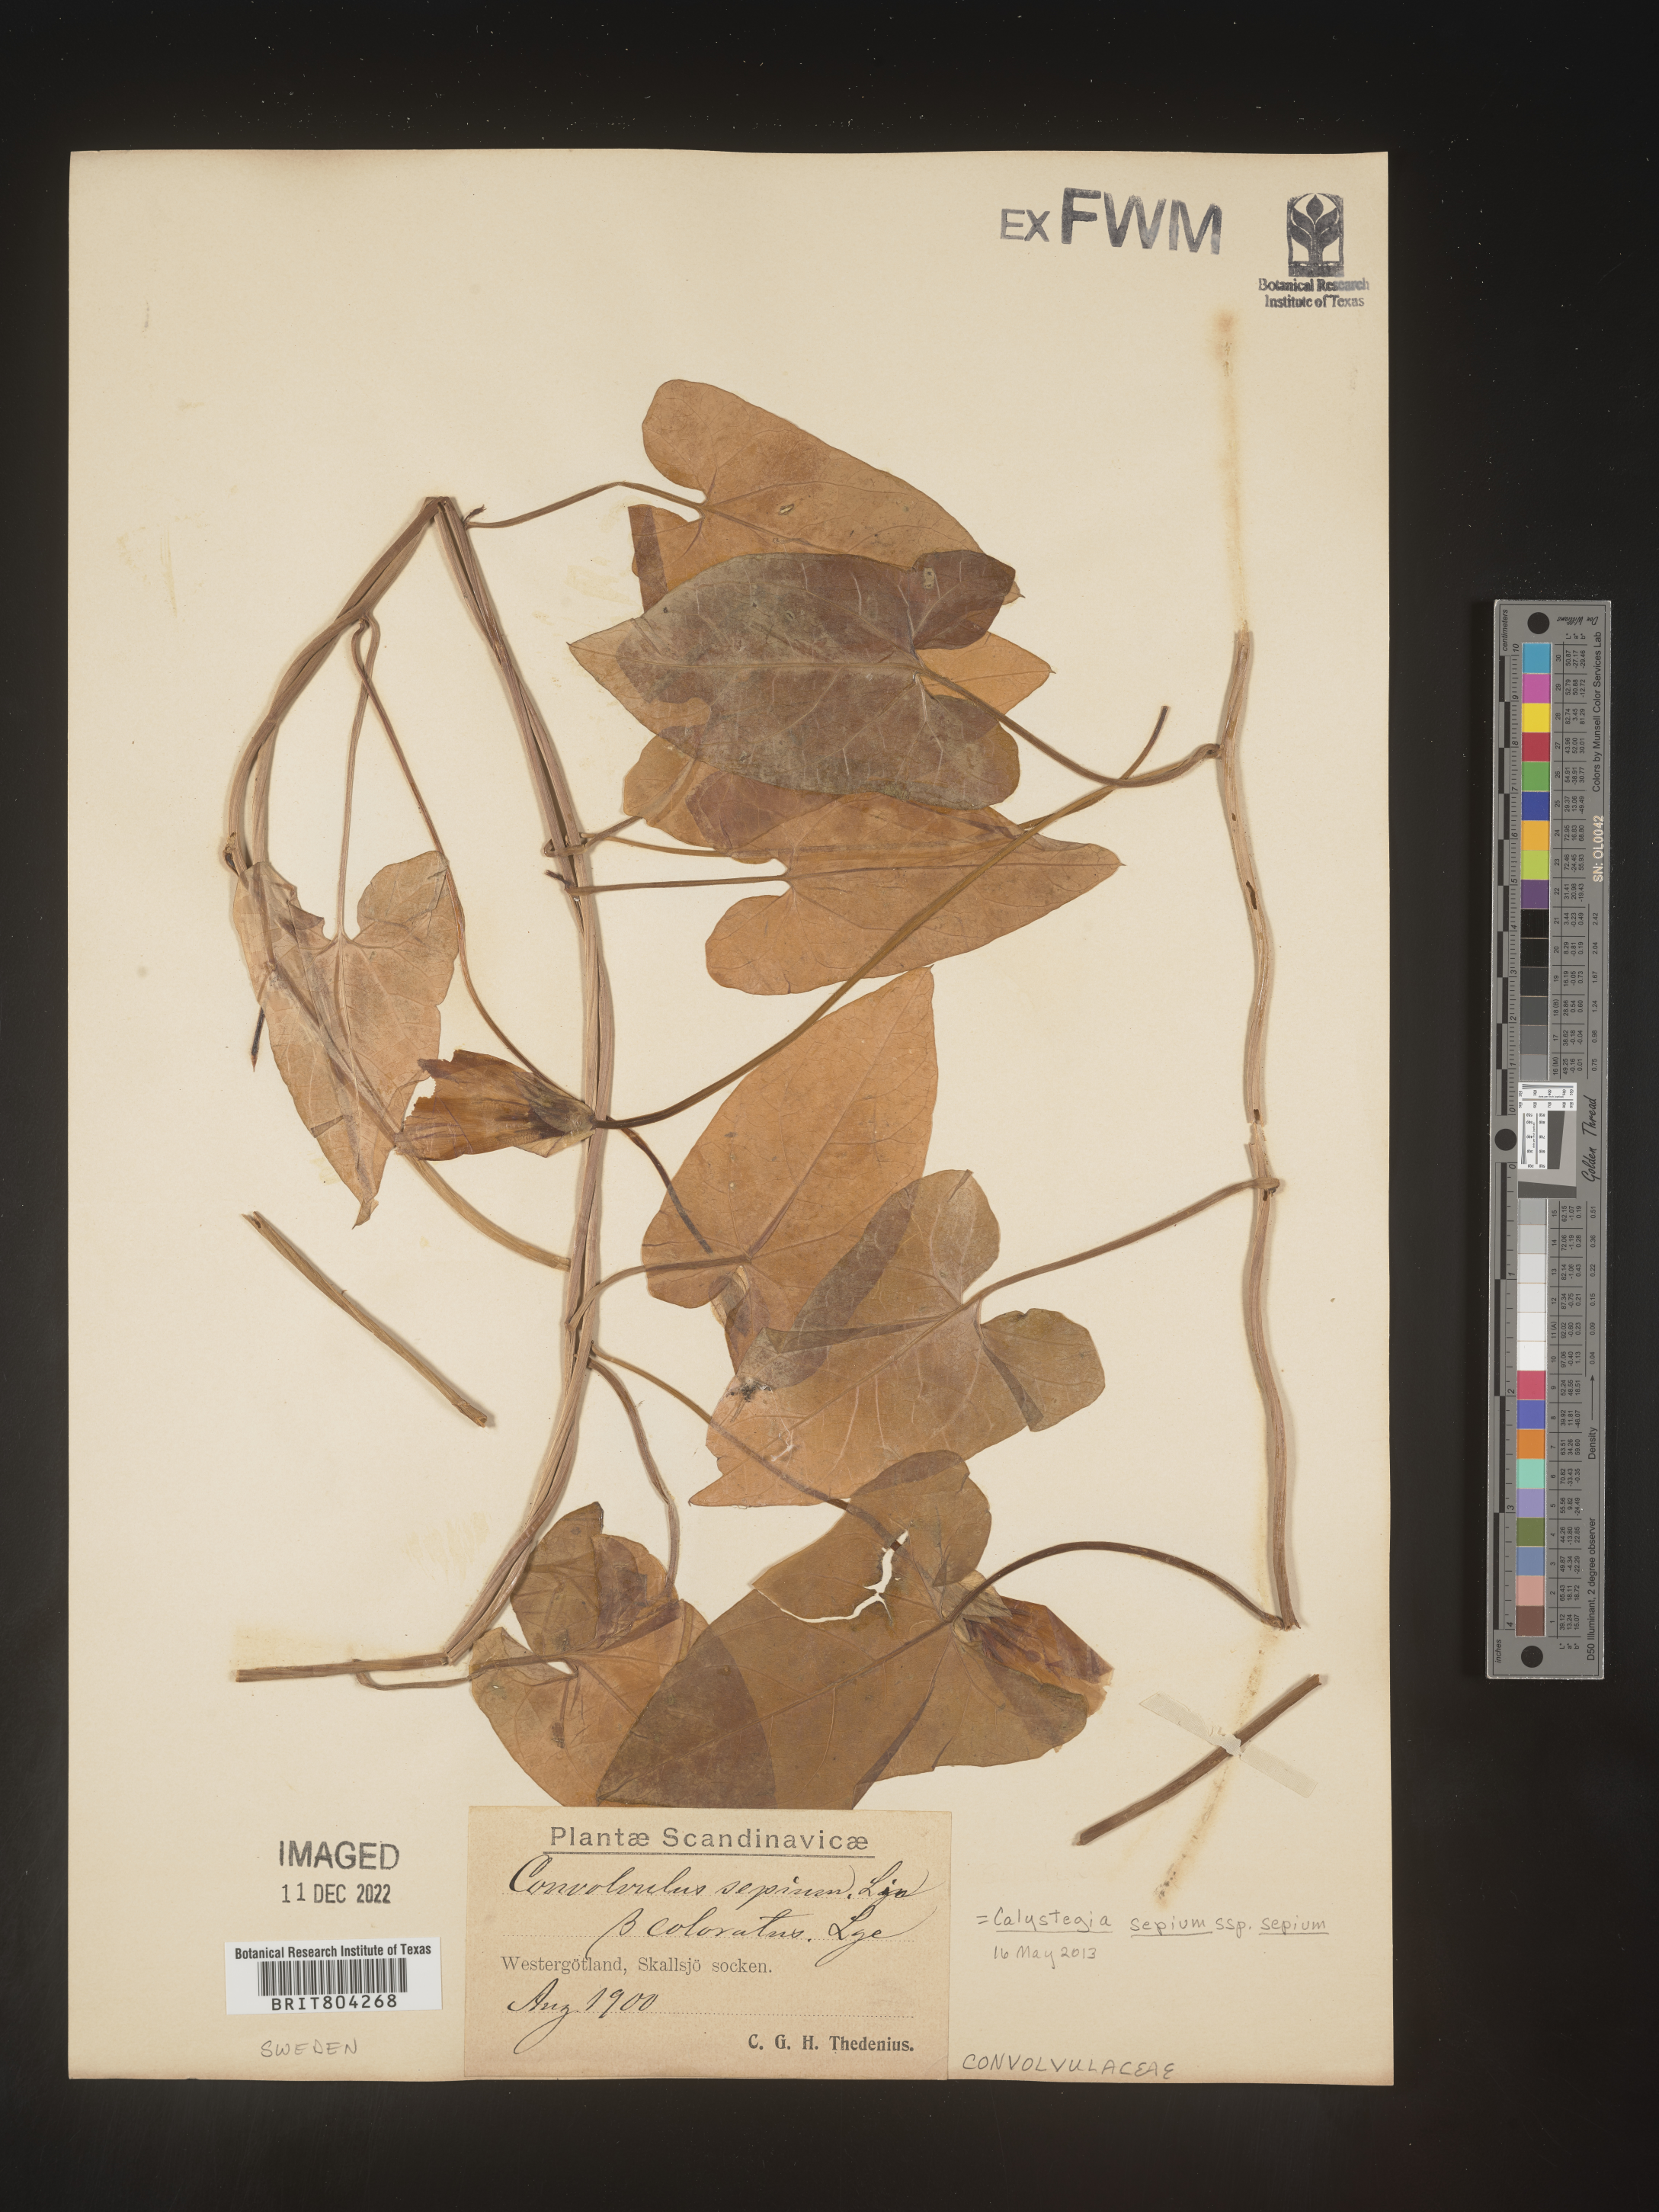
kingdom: Plantae
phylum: Tracheophyta
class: Magnoliopsida
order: Solanales
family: Convolvulaceae
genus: Calystegia
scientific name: Calystegia
